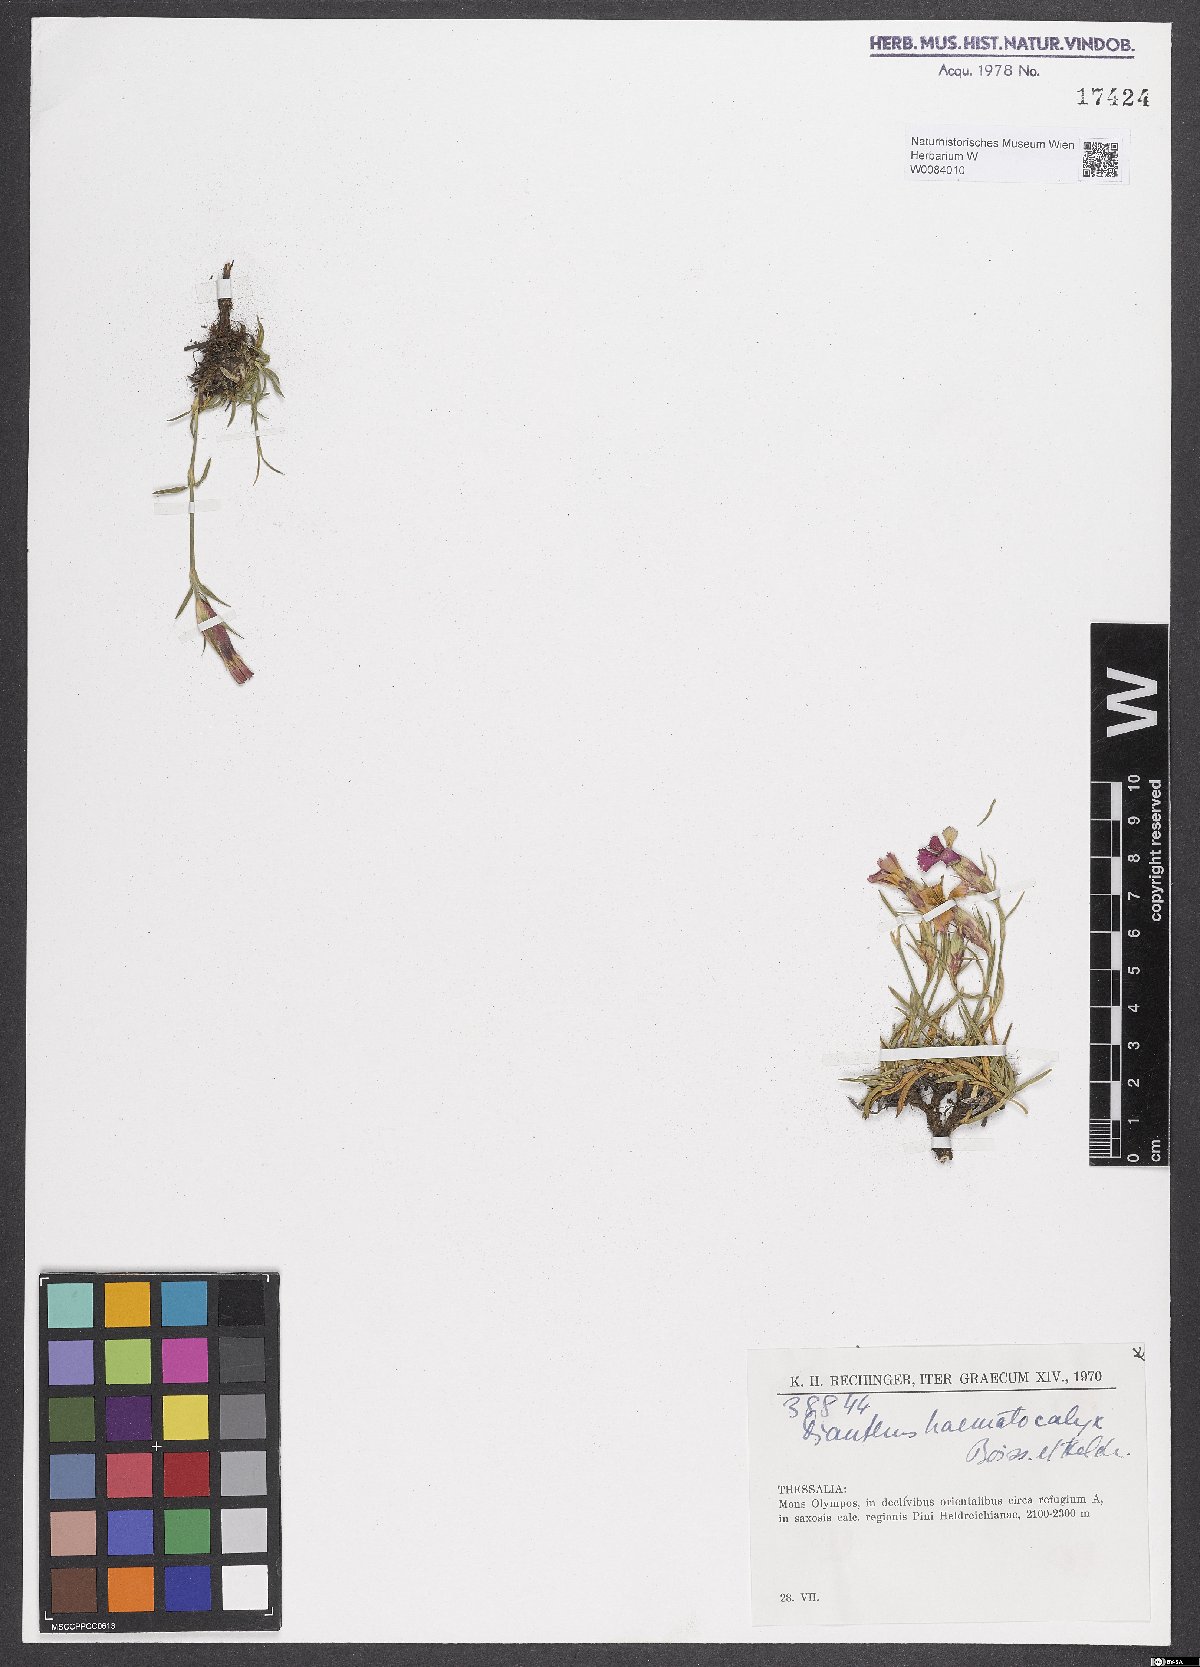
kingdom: Plantae
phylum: Tracheophyta
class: Magnoliopsida
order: Caryophyllales
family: Caryophyllaceae
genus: Dianthus
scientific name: Dianthus haematocalyx
